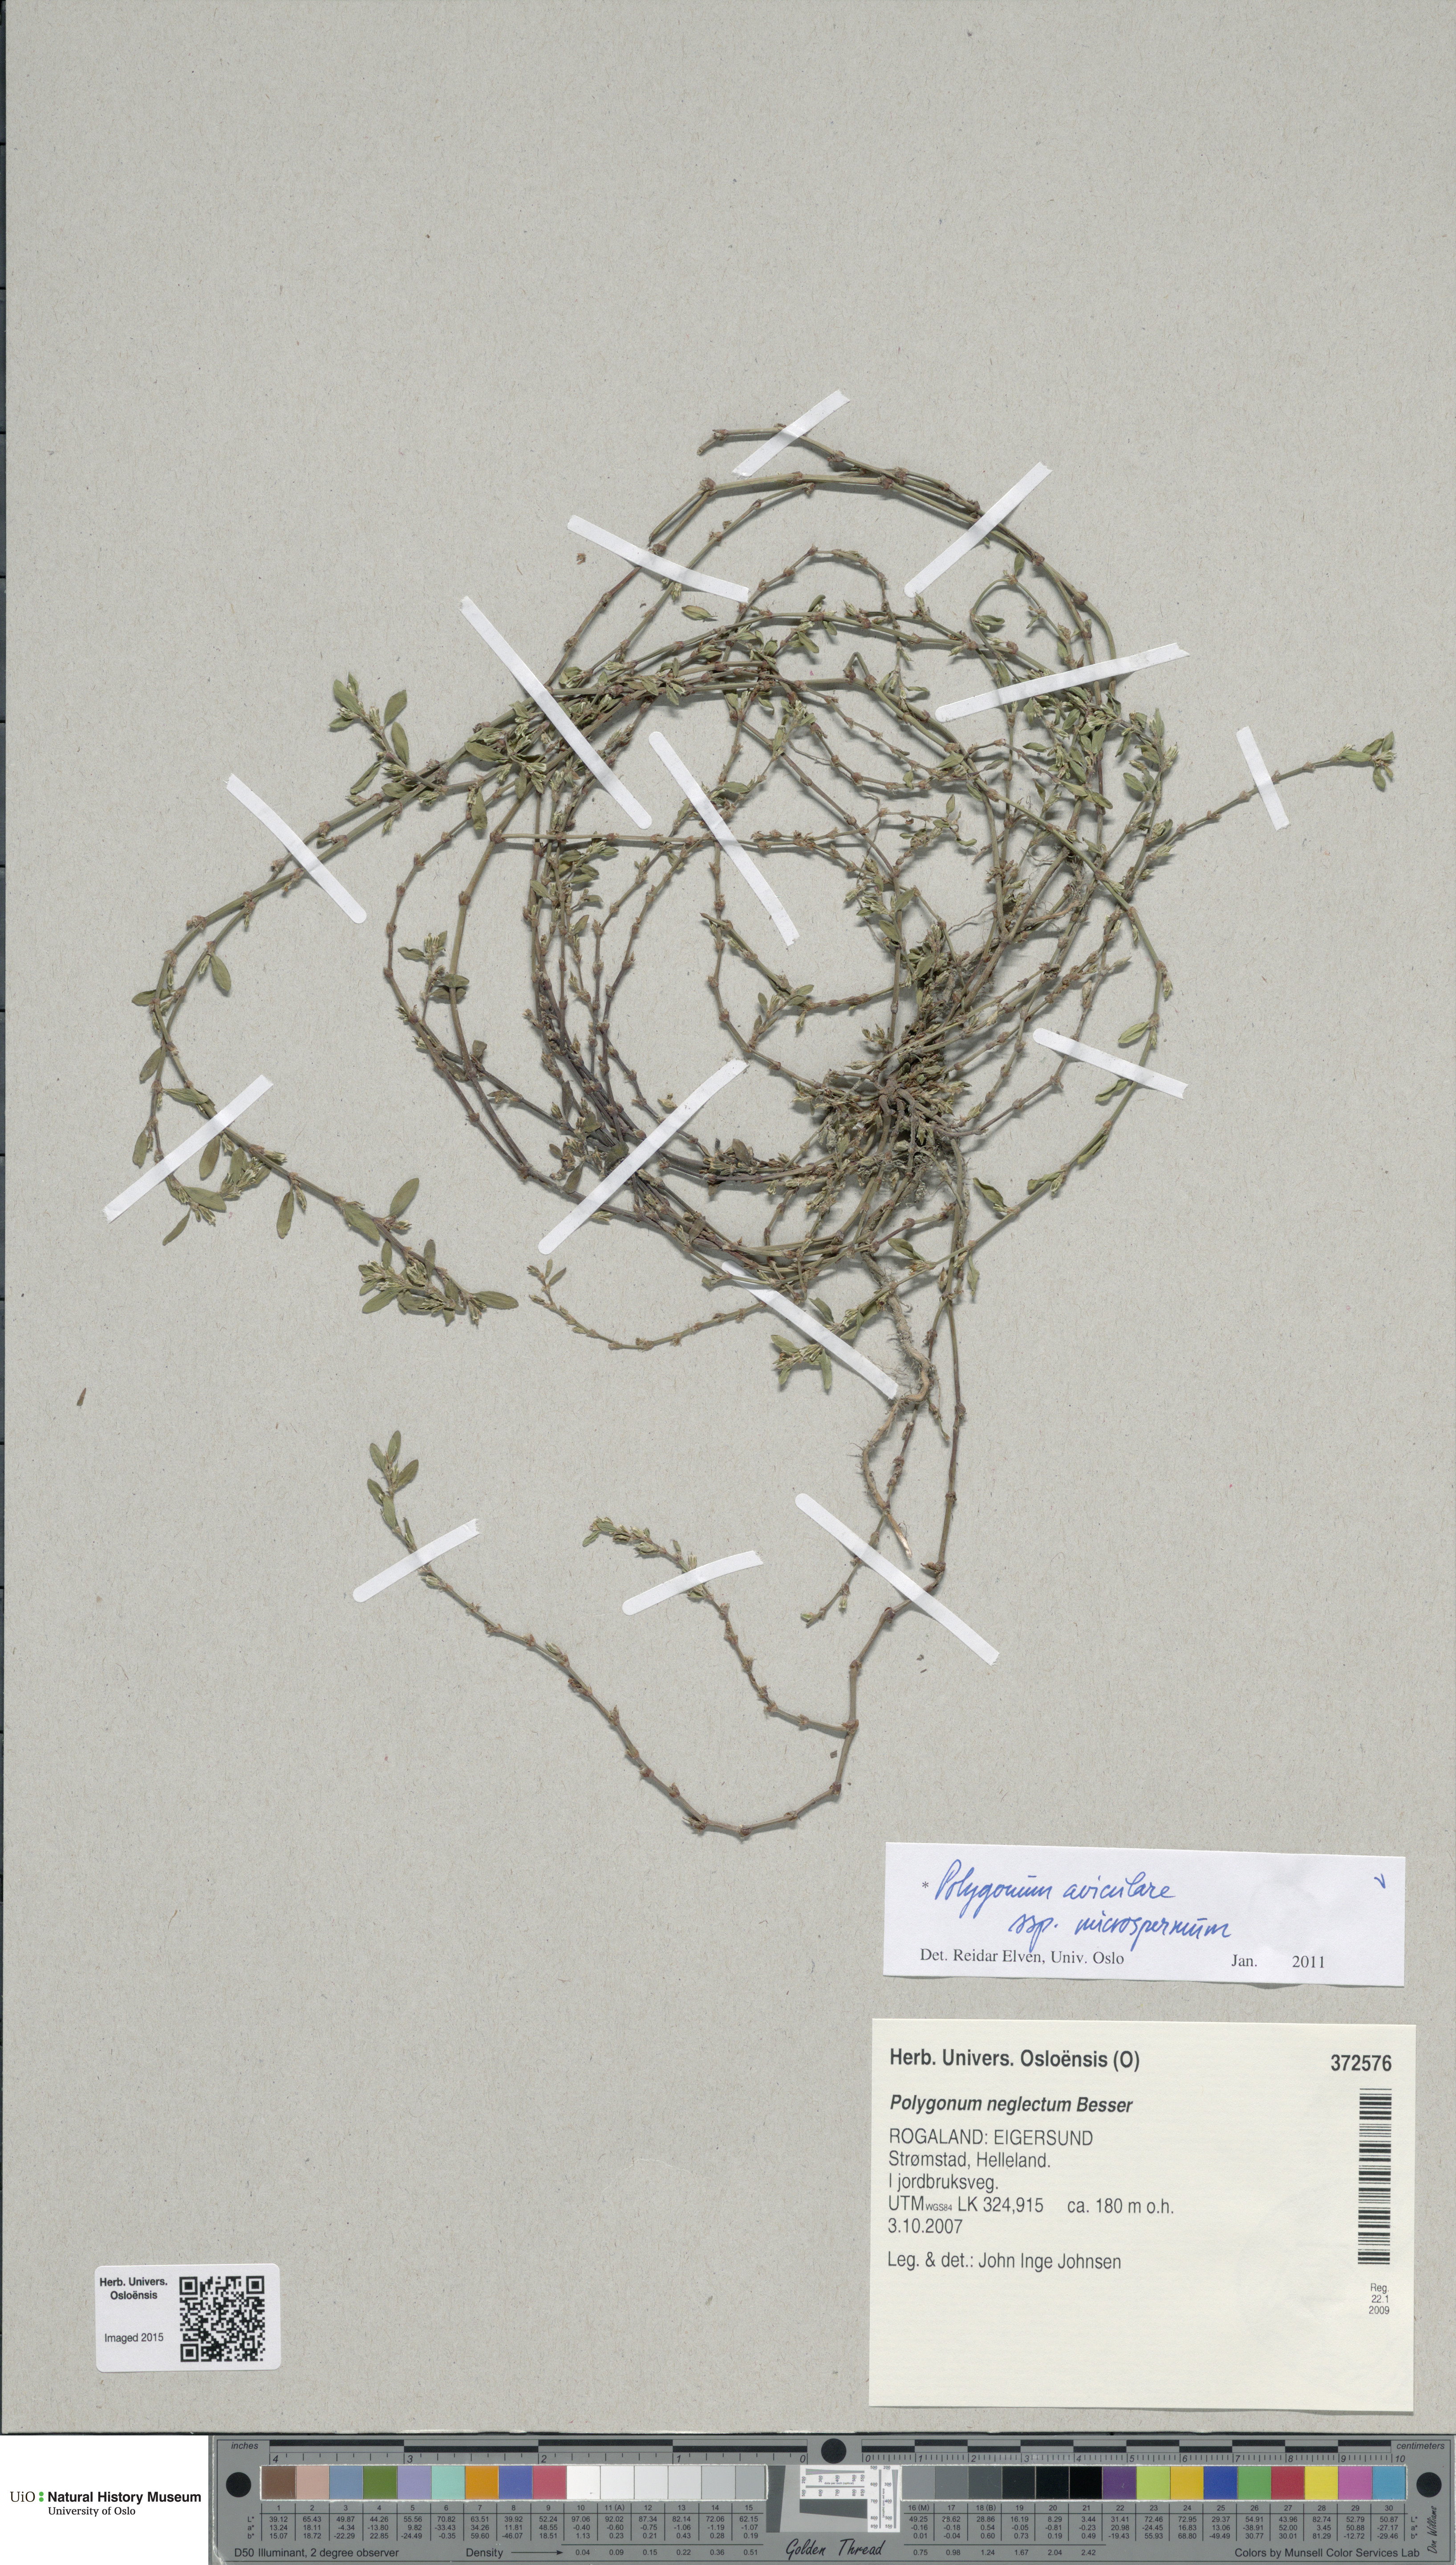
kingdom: Plantae
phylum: Tracheophyta
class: Magnoliopsida
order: Caryophyllales
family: Polygonaceae
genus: Polygonum
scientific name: Polygonum arenastrum
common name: Equal-leaved knotgrass
